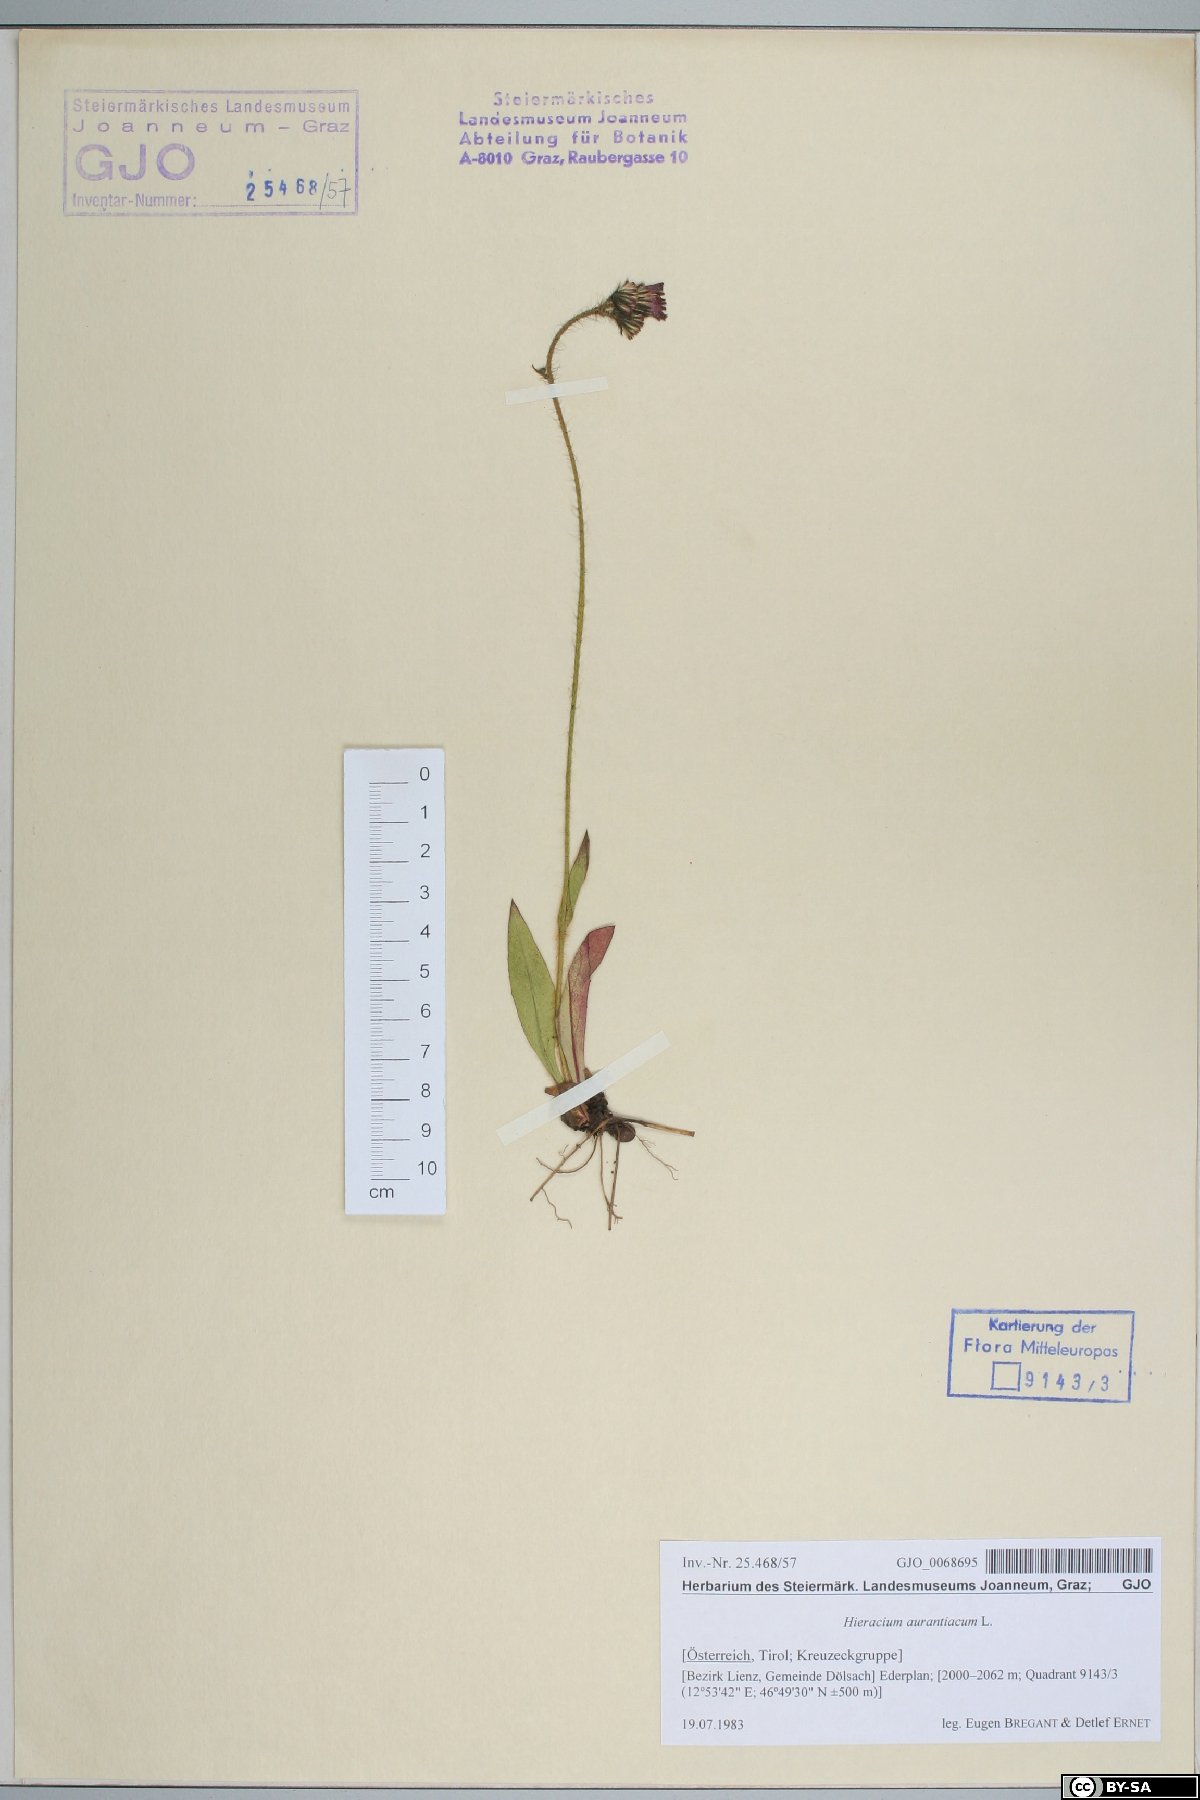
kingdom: Plantae
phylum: Tracheophyta
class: Magnoliopsida
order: Asterales
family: Asteraceae
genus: Pilosella
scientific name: Pilosella aurantiaca
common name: Fox-and-cubs
